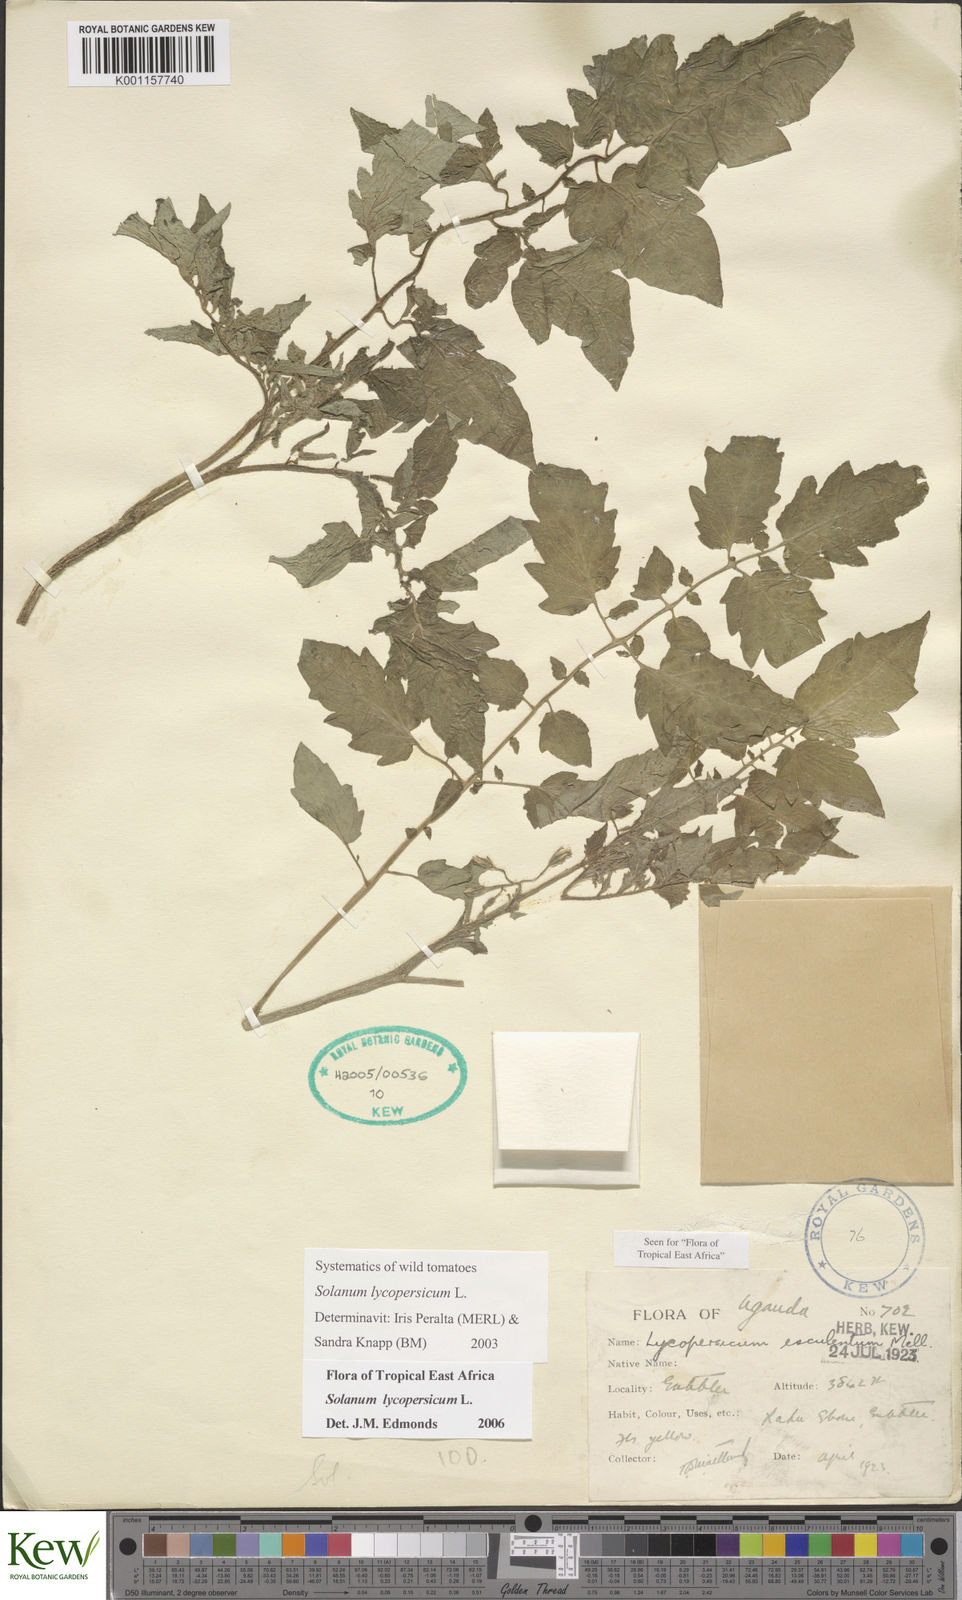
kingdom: Plantae
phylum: Tracheophyta
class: Magnoliopsida
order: Solanales
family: Solanaceae
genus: Solanum
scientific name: Solanum lycopersicum
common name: Garden tomato
